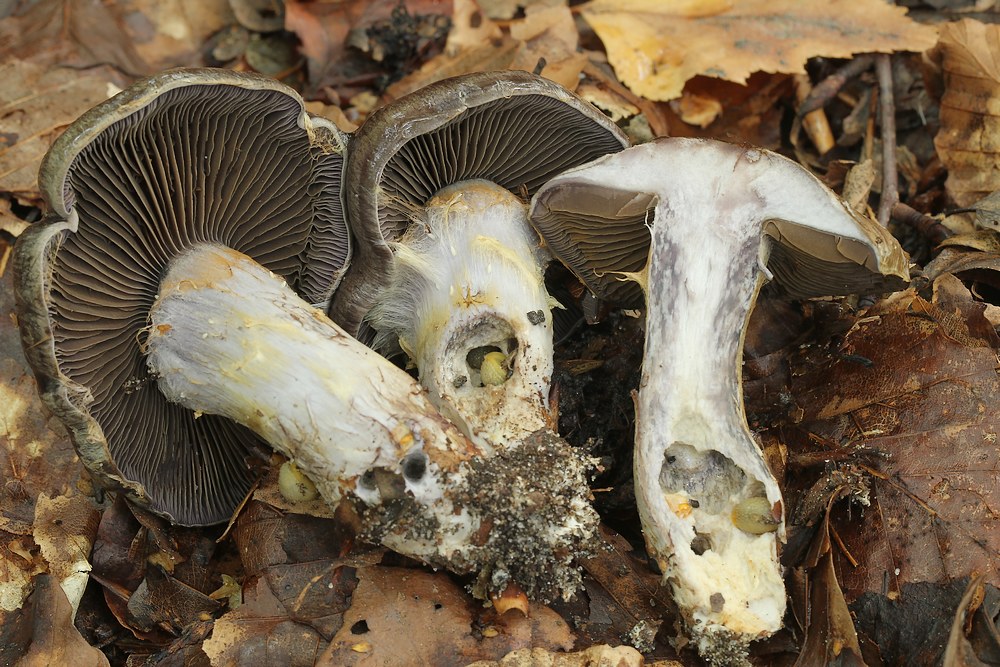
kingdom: Fungi
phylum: Basidiomycota
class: Agaricomycetes
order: Agaricales
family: Cortinariaceae
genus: Cortinarius
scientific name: Cortinarius
